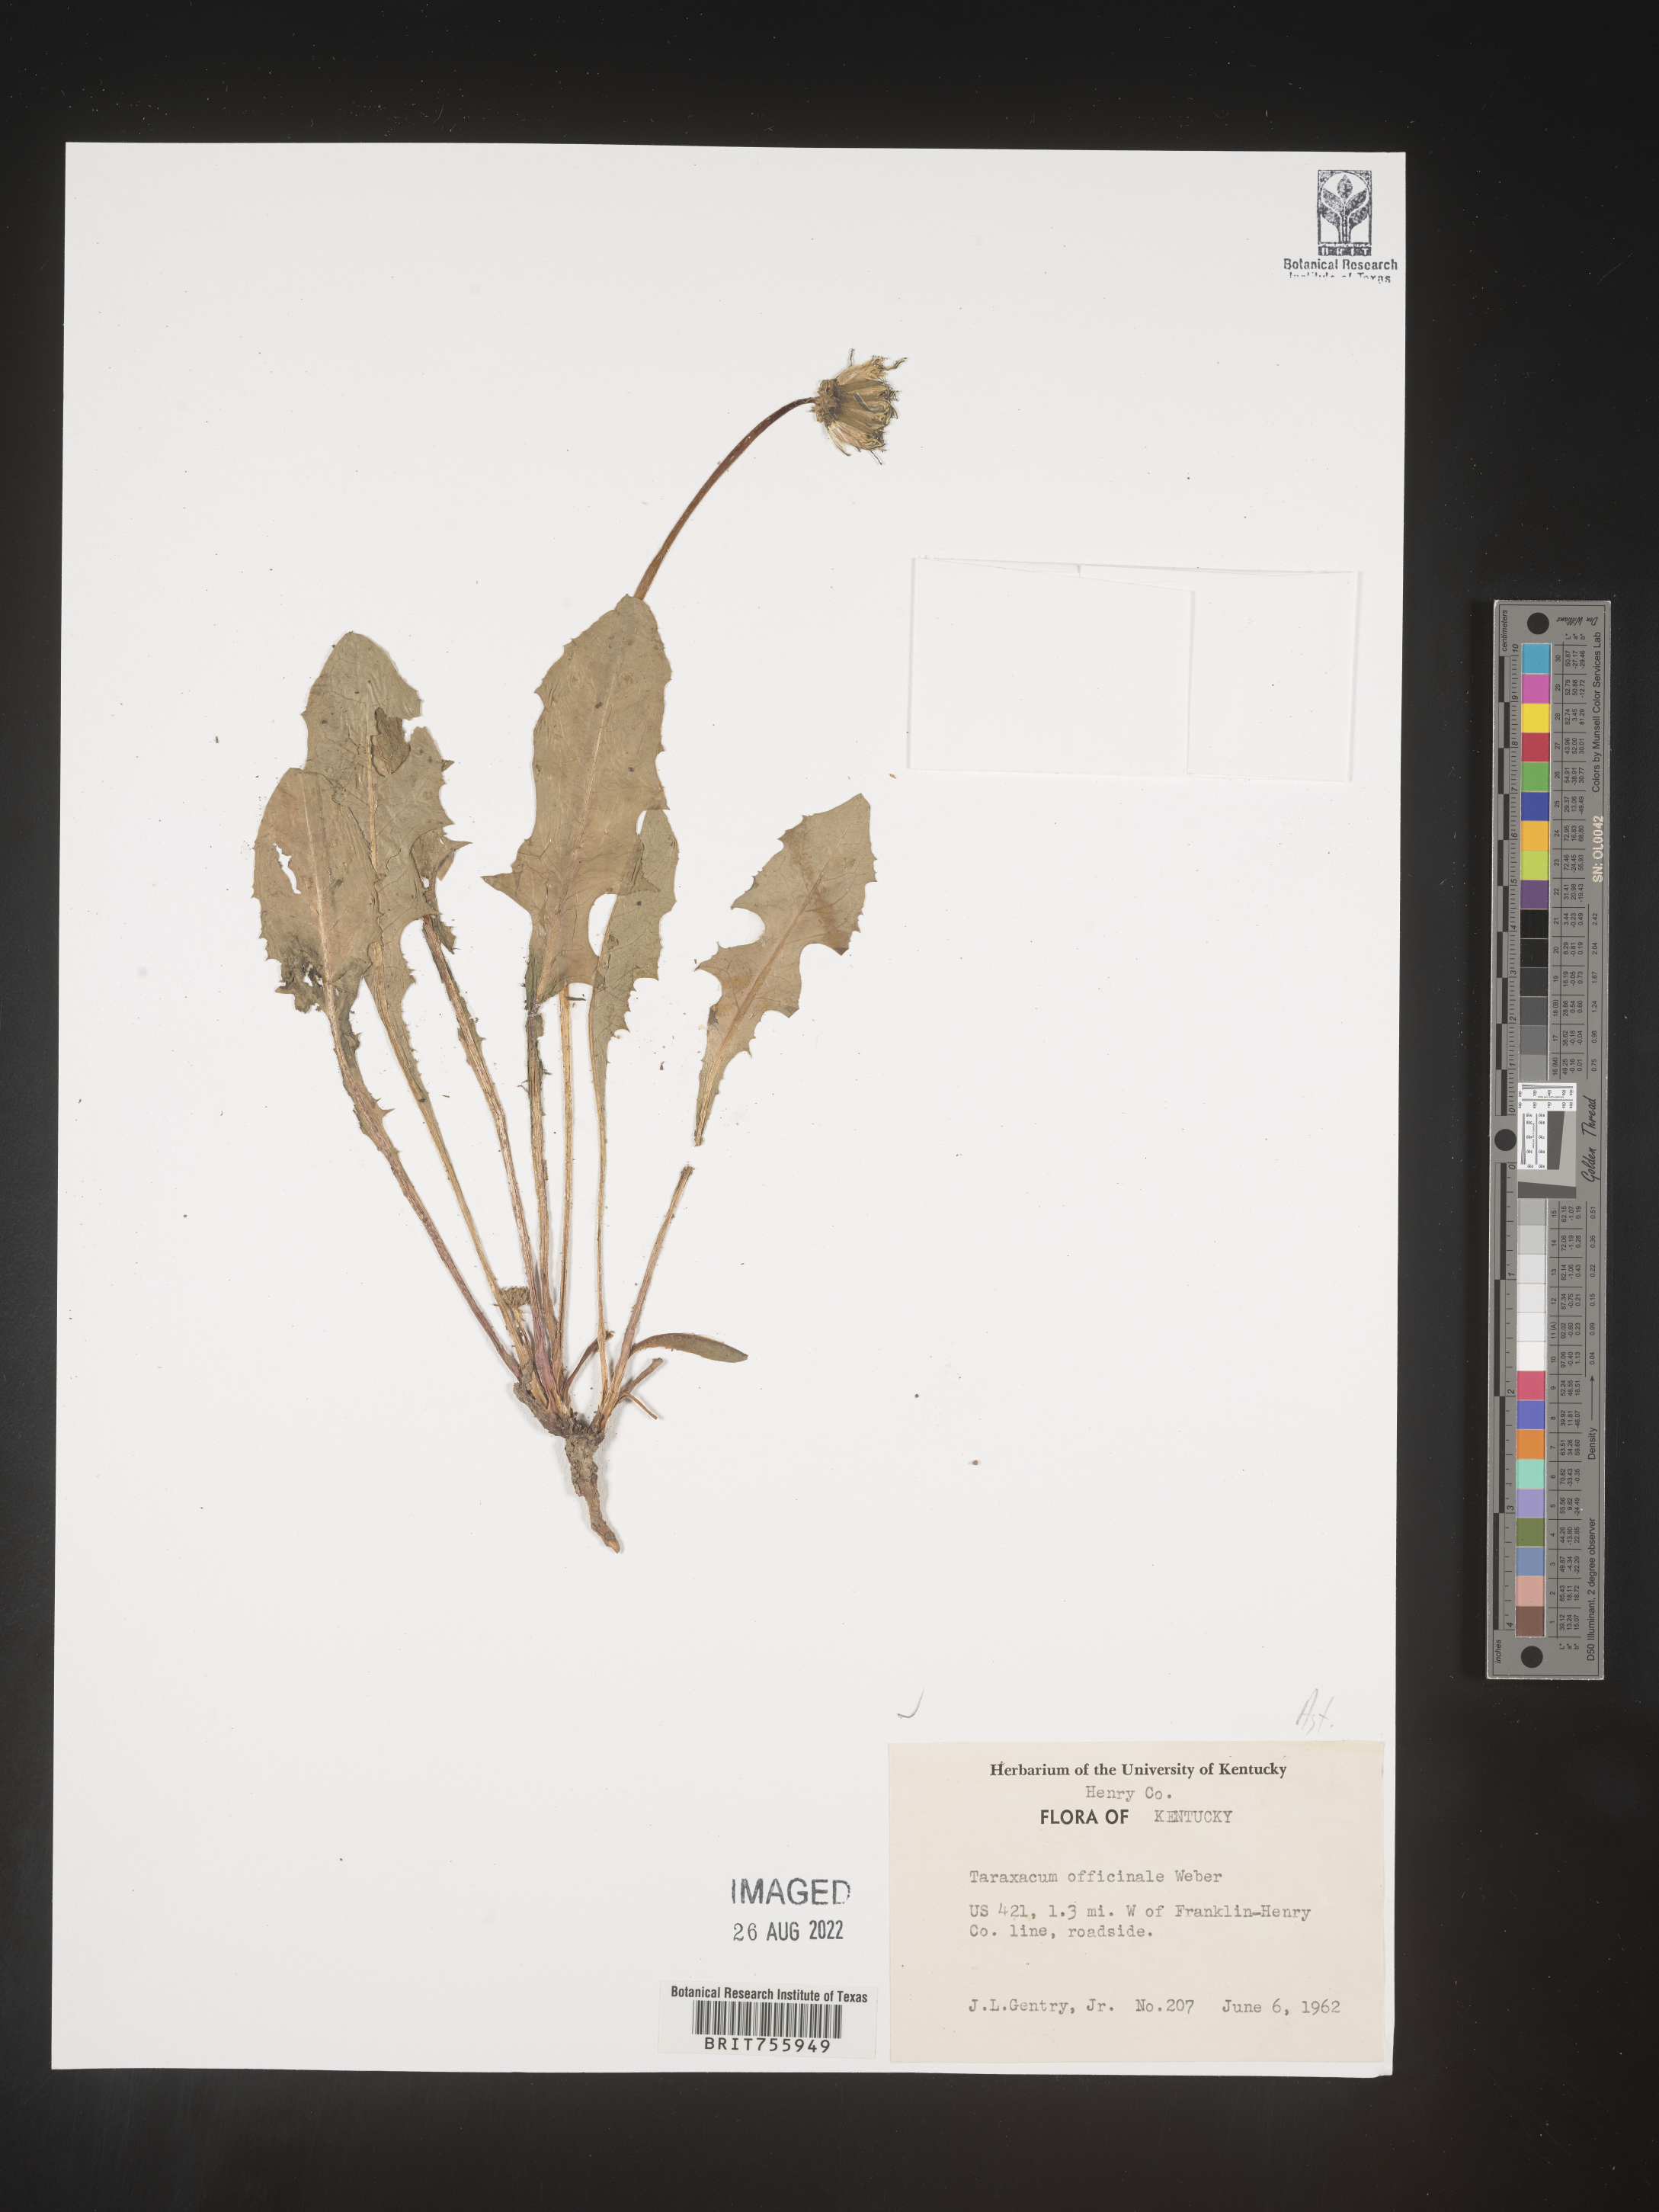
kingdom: Plantae
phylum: Tracheophyta
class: Magnoliopsida
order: Asterales
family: Asteraceae
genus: Taraxacum
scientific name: Taraxacum officinale
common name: Common dandelion
